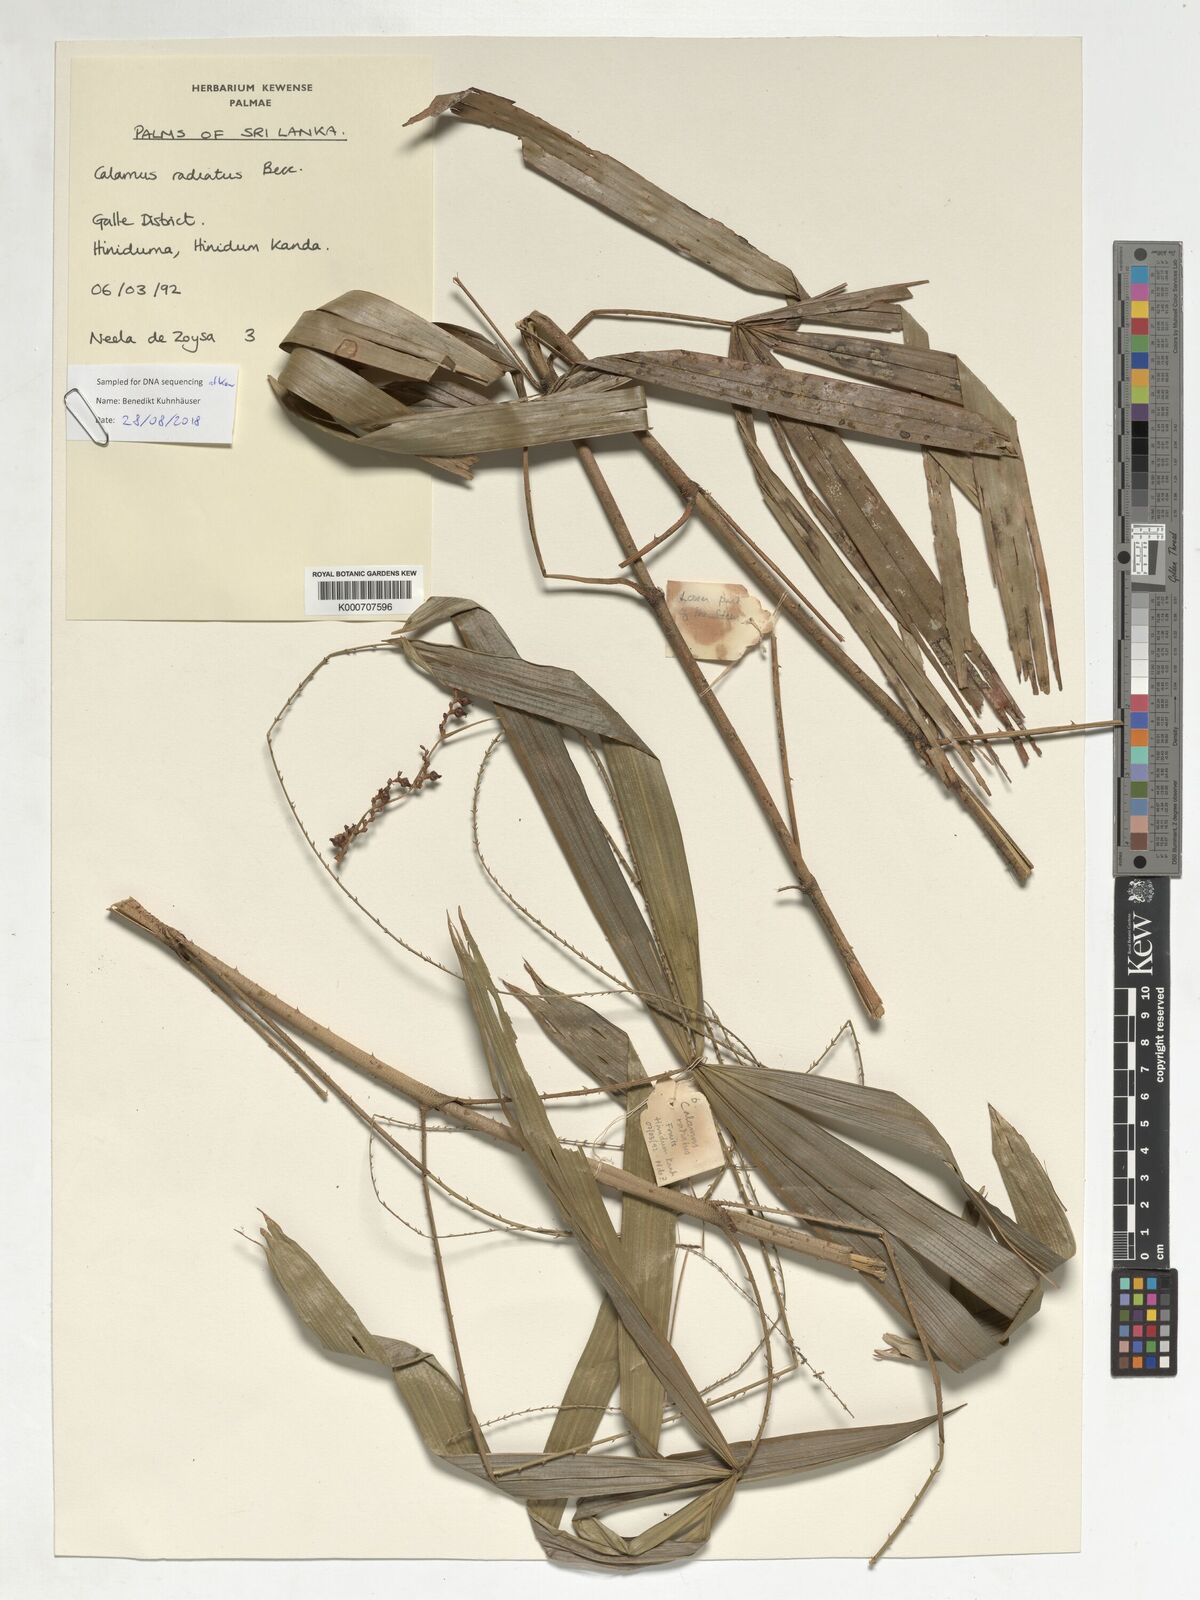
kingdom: Plantae
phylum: Tracheophyta
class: Liliopsida
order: Arecales
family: Arecaceae
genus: Calamus
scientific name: Calamus radiatus
